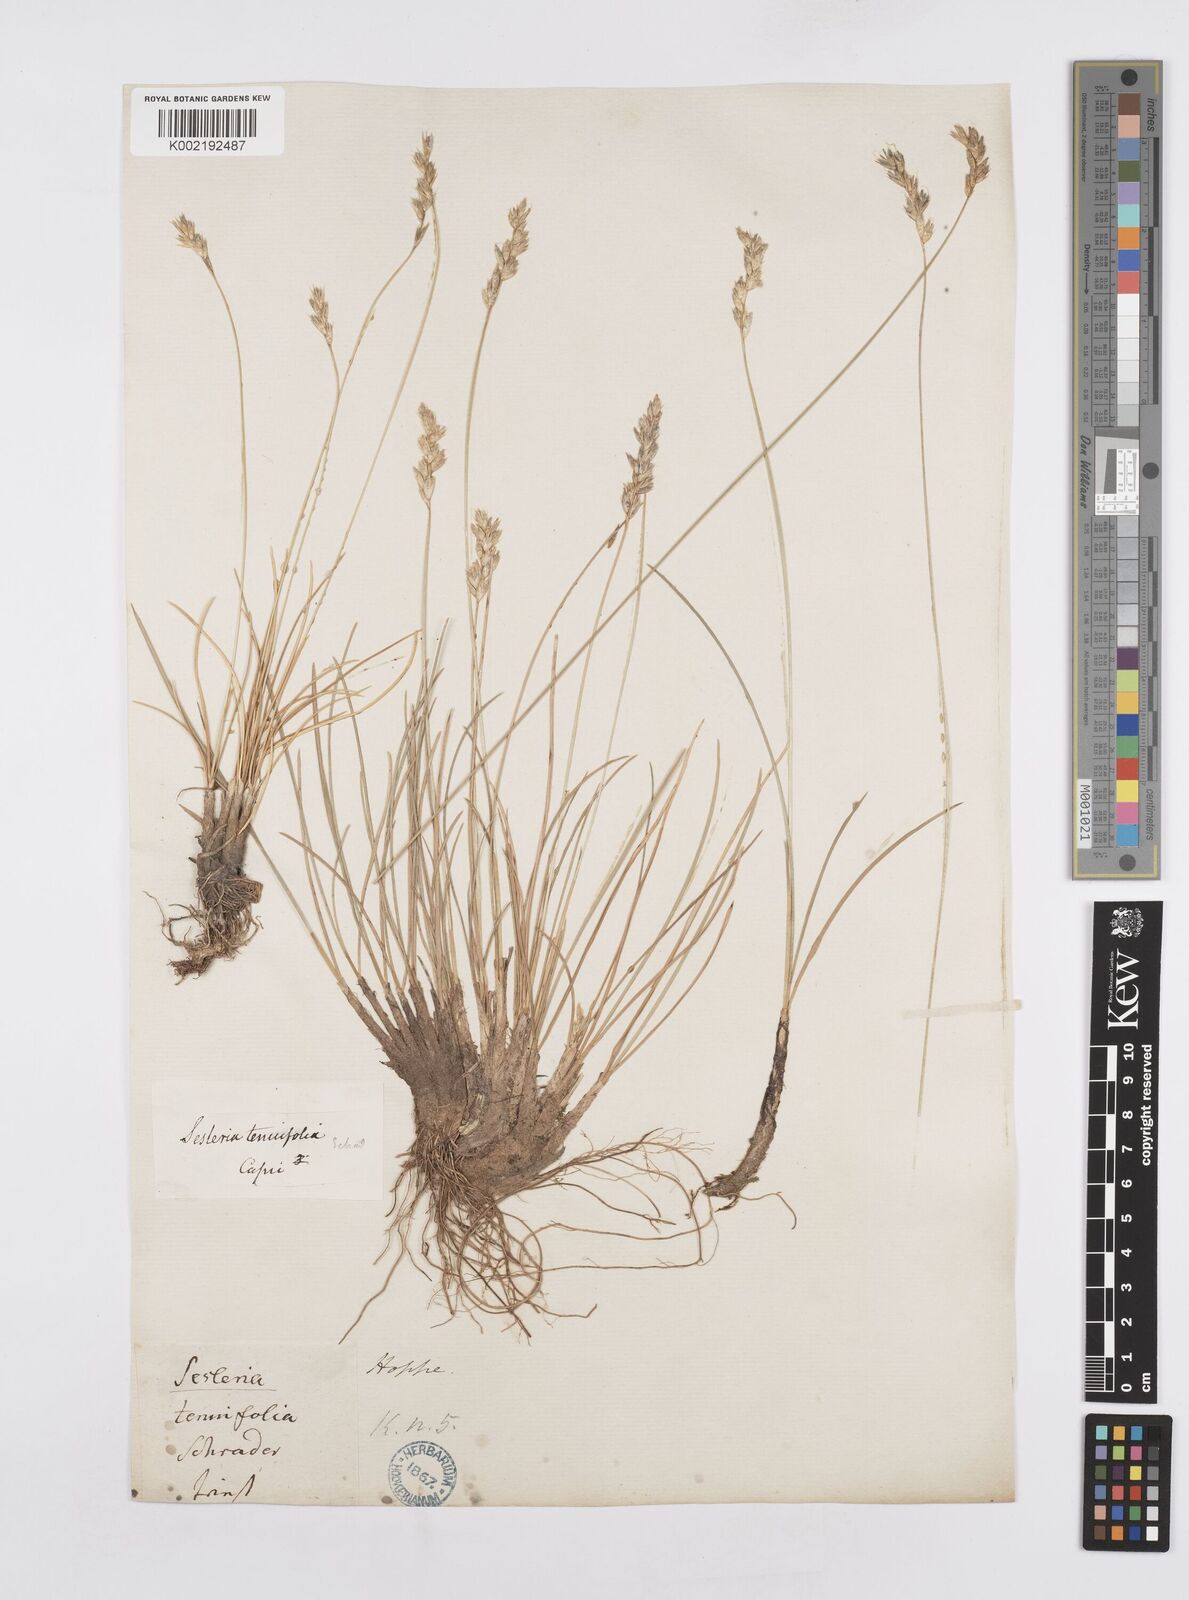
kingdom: Plantae
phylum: Tracheophyta
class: Liliopsida
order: Poales
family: Poaceae
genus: Sesleria
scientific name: Sesleria juncifolia
